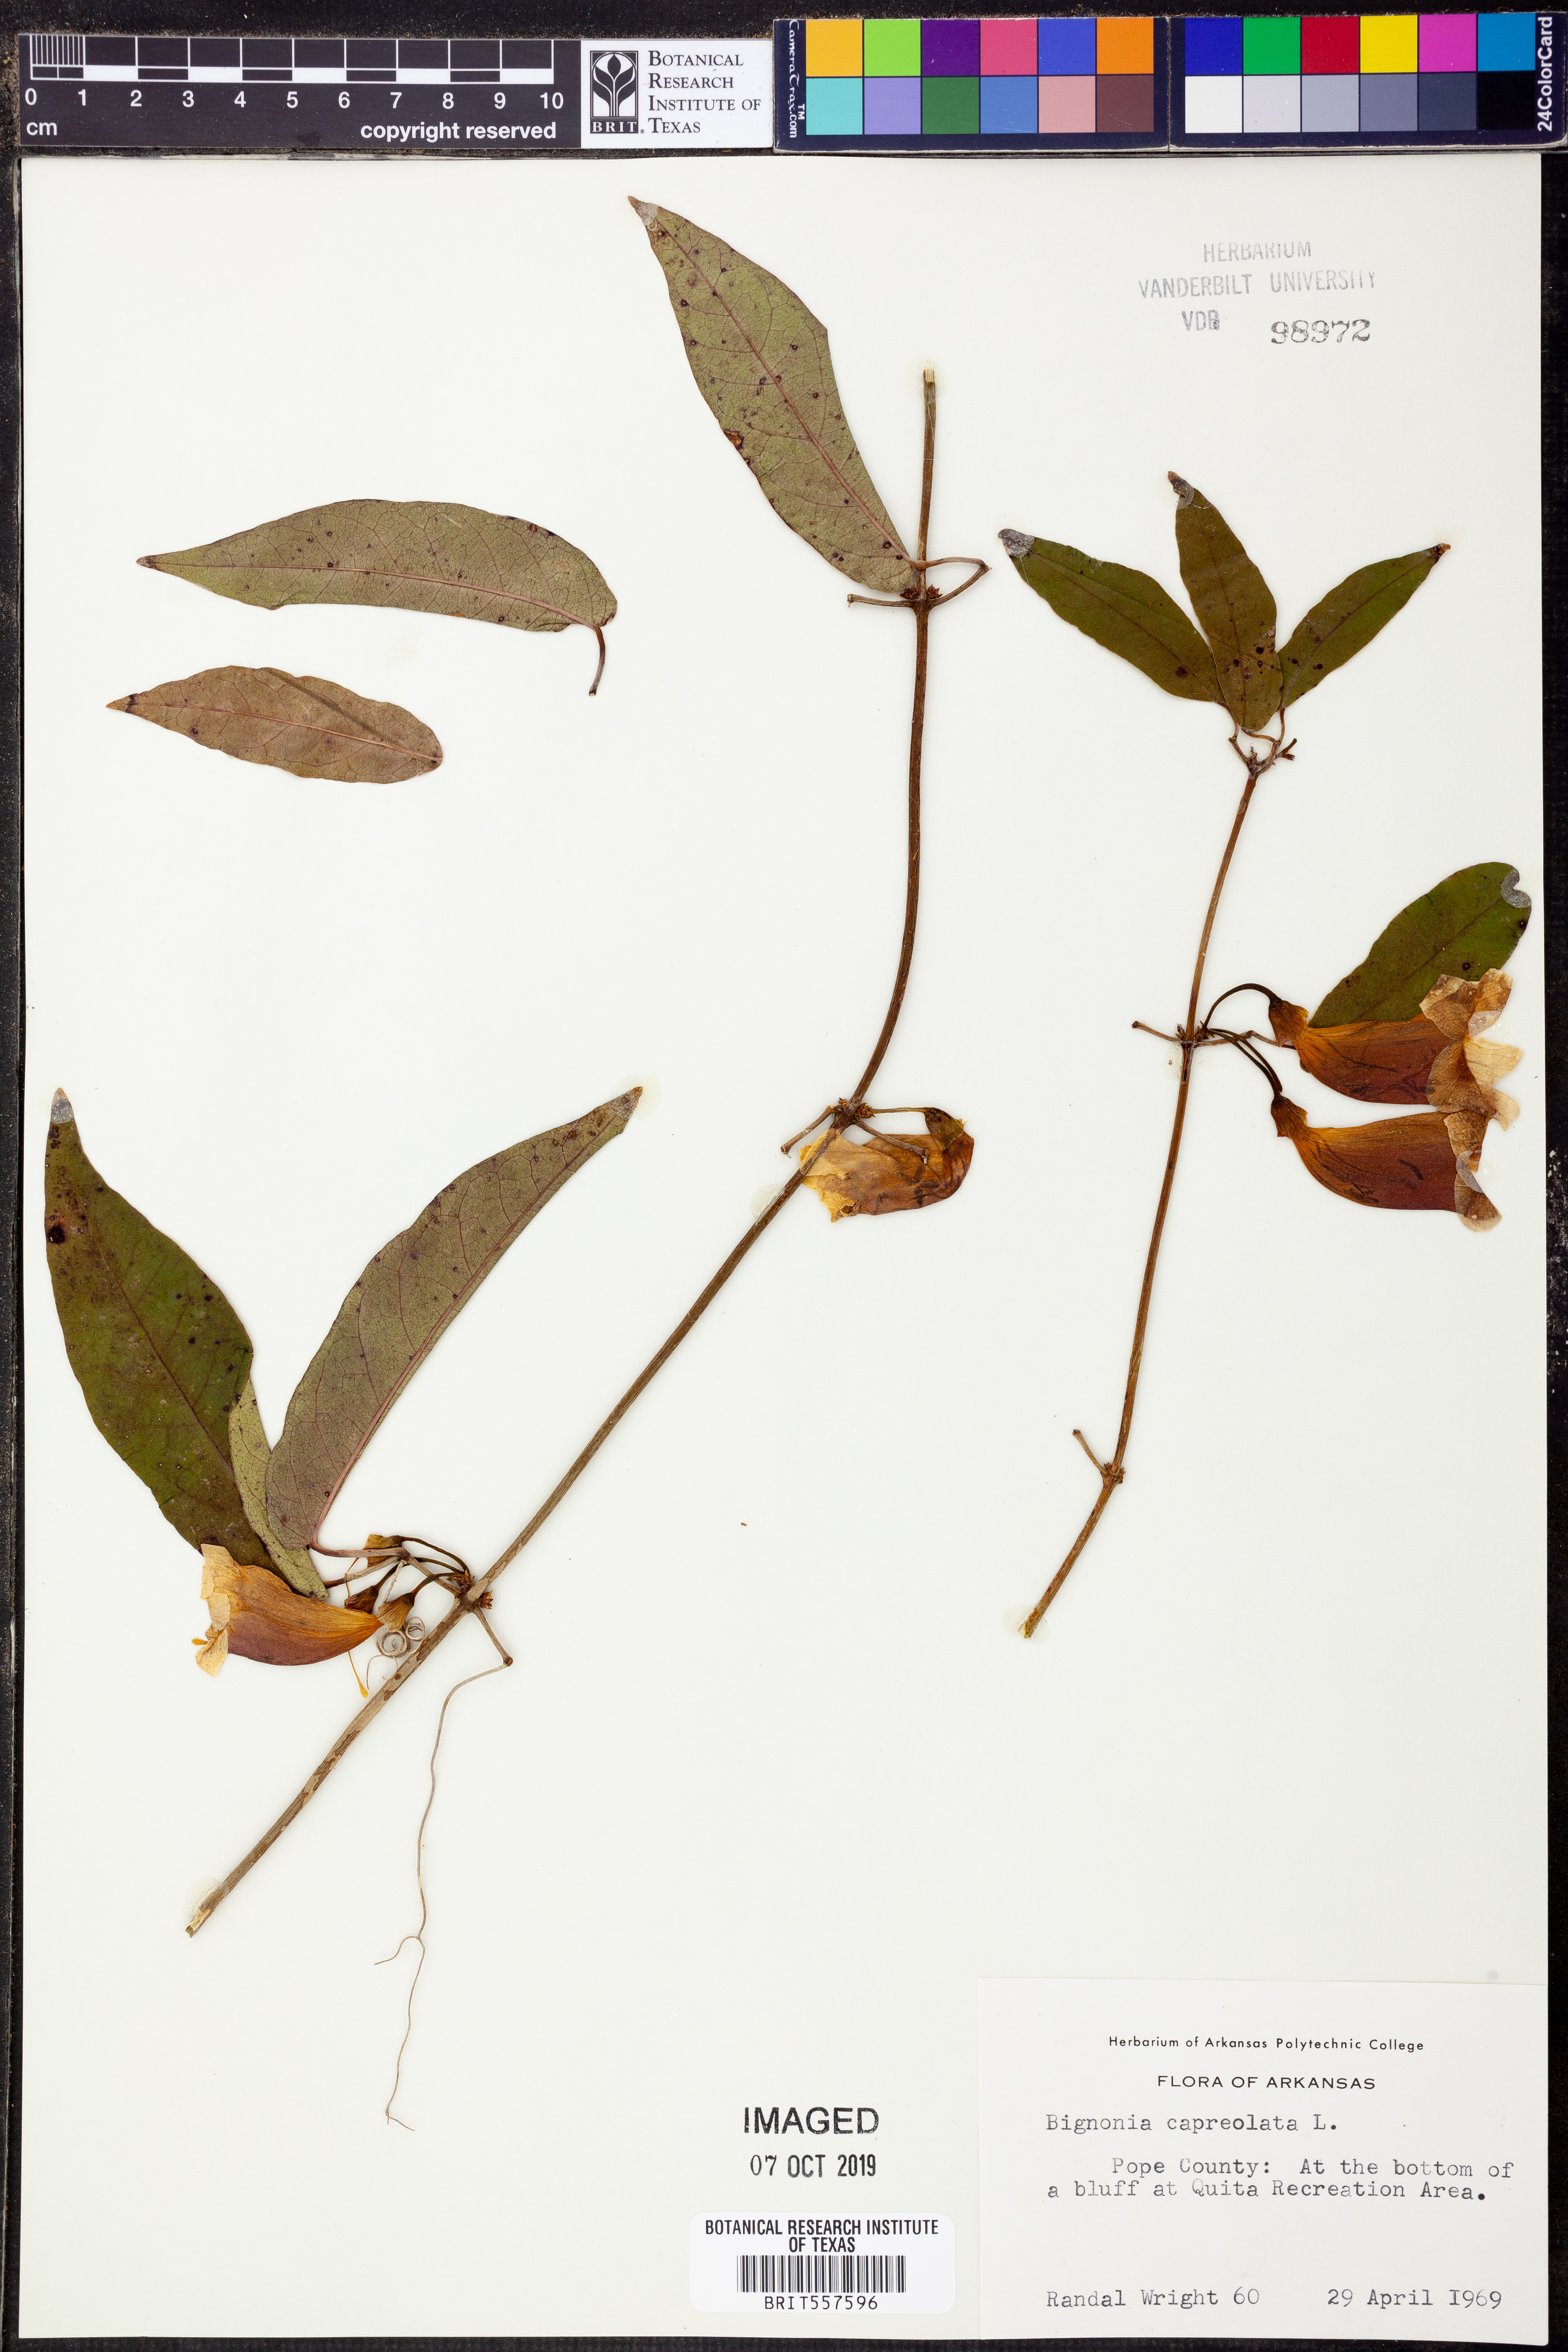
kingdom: Plantae
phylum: Tracheophyta
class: Magnoliopsida
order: Lamiales
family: Bignoniaceae
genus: Bignonia
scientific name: Bignonia capreolata
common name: Crossvine
